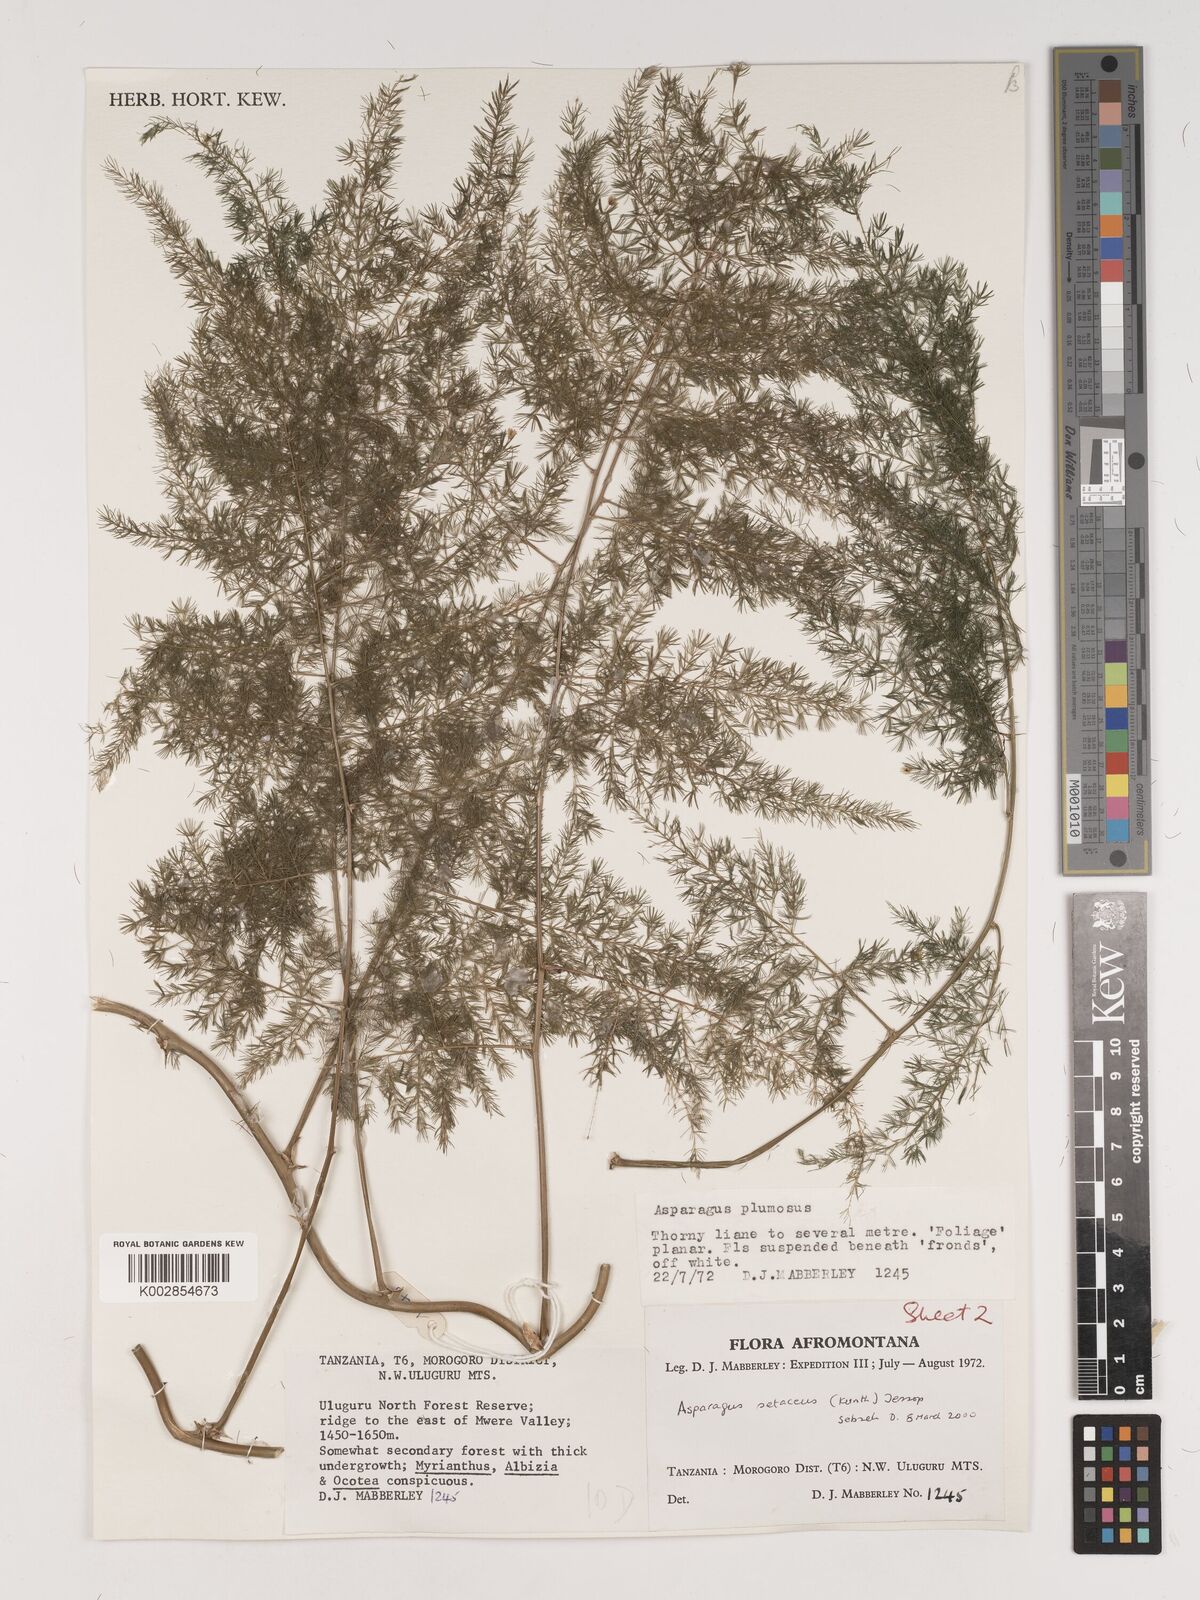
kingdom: Plantae
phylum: Tracheophyta
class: Liliopsida
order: Asparagales
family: Asparagaceae
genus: Asparagus
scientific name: Asparagus setaceus
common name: Common asparagus fern
